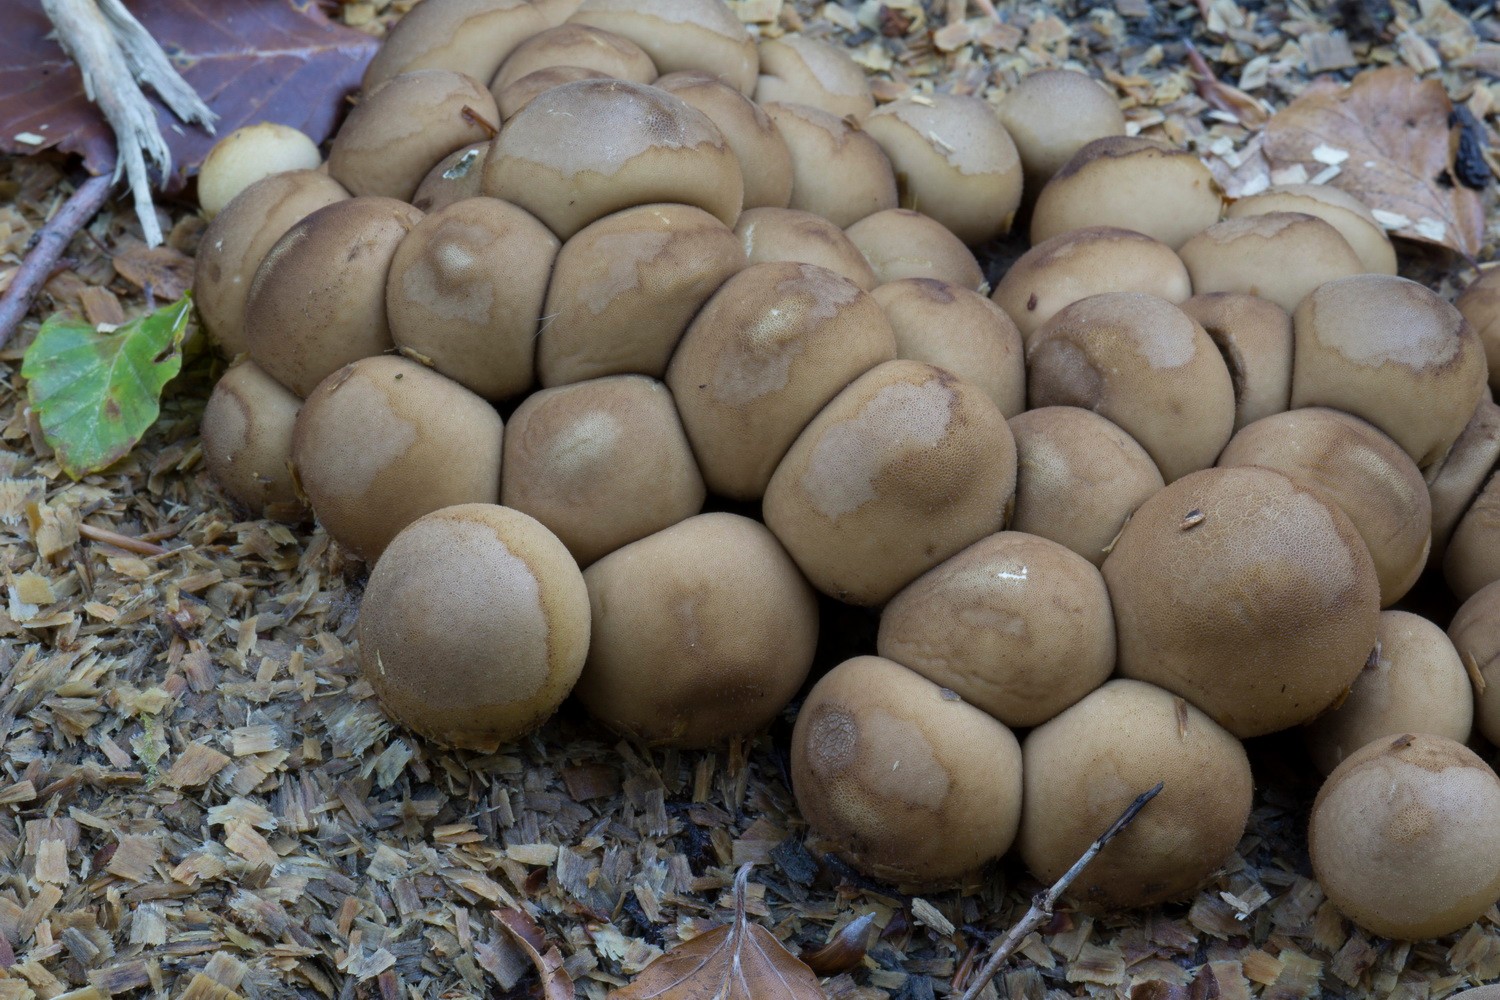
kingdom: Fungi
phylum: Basidiomycota
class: Agaricomycetes
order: Agaricales
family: Lycoperdaceae
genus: Apioperdon
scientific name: Apioperdon pyriforme
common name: pære-støvbold
